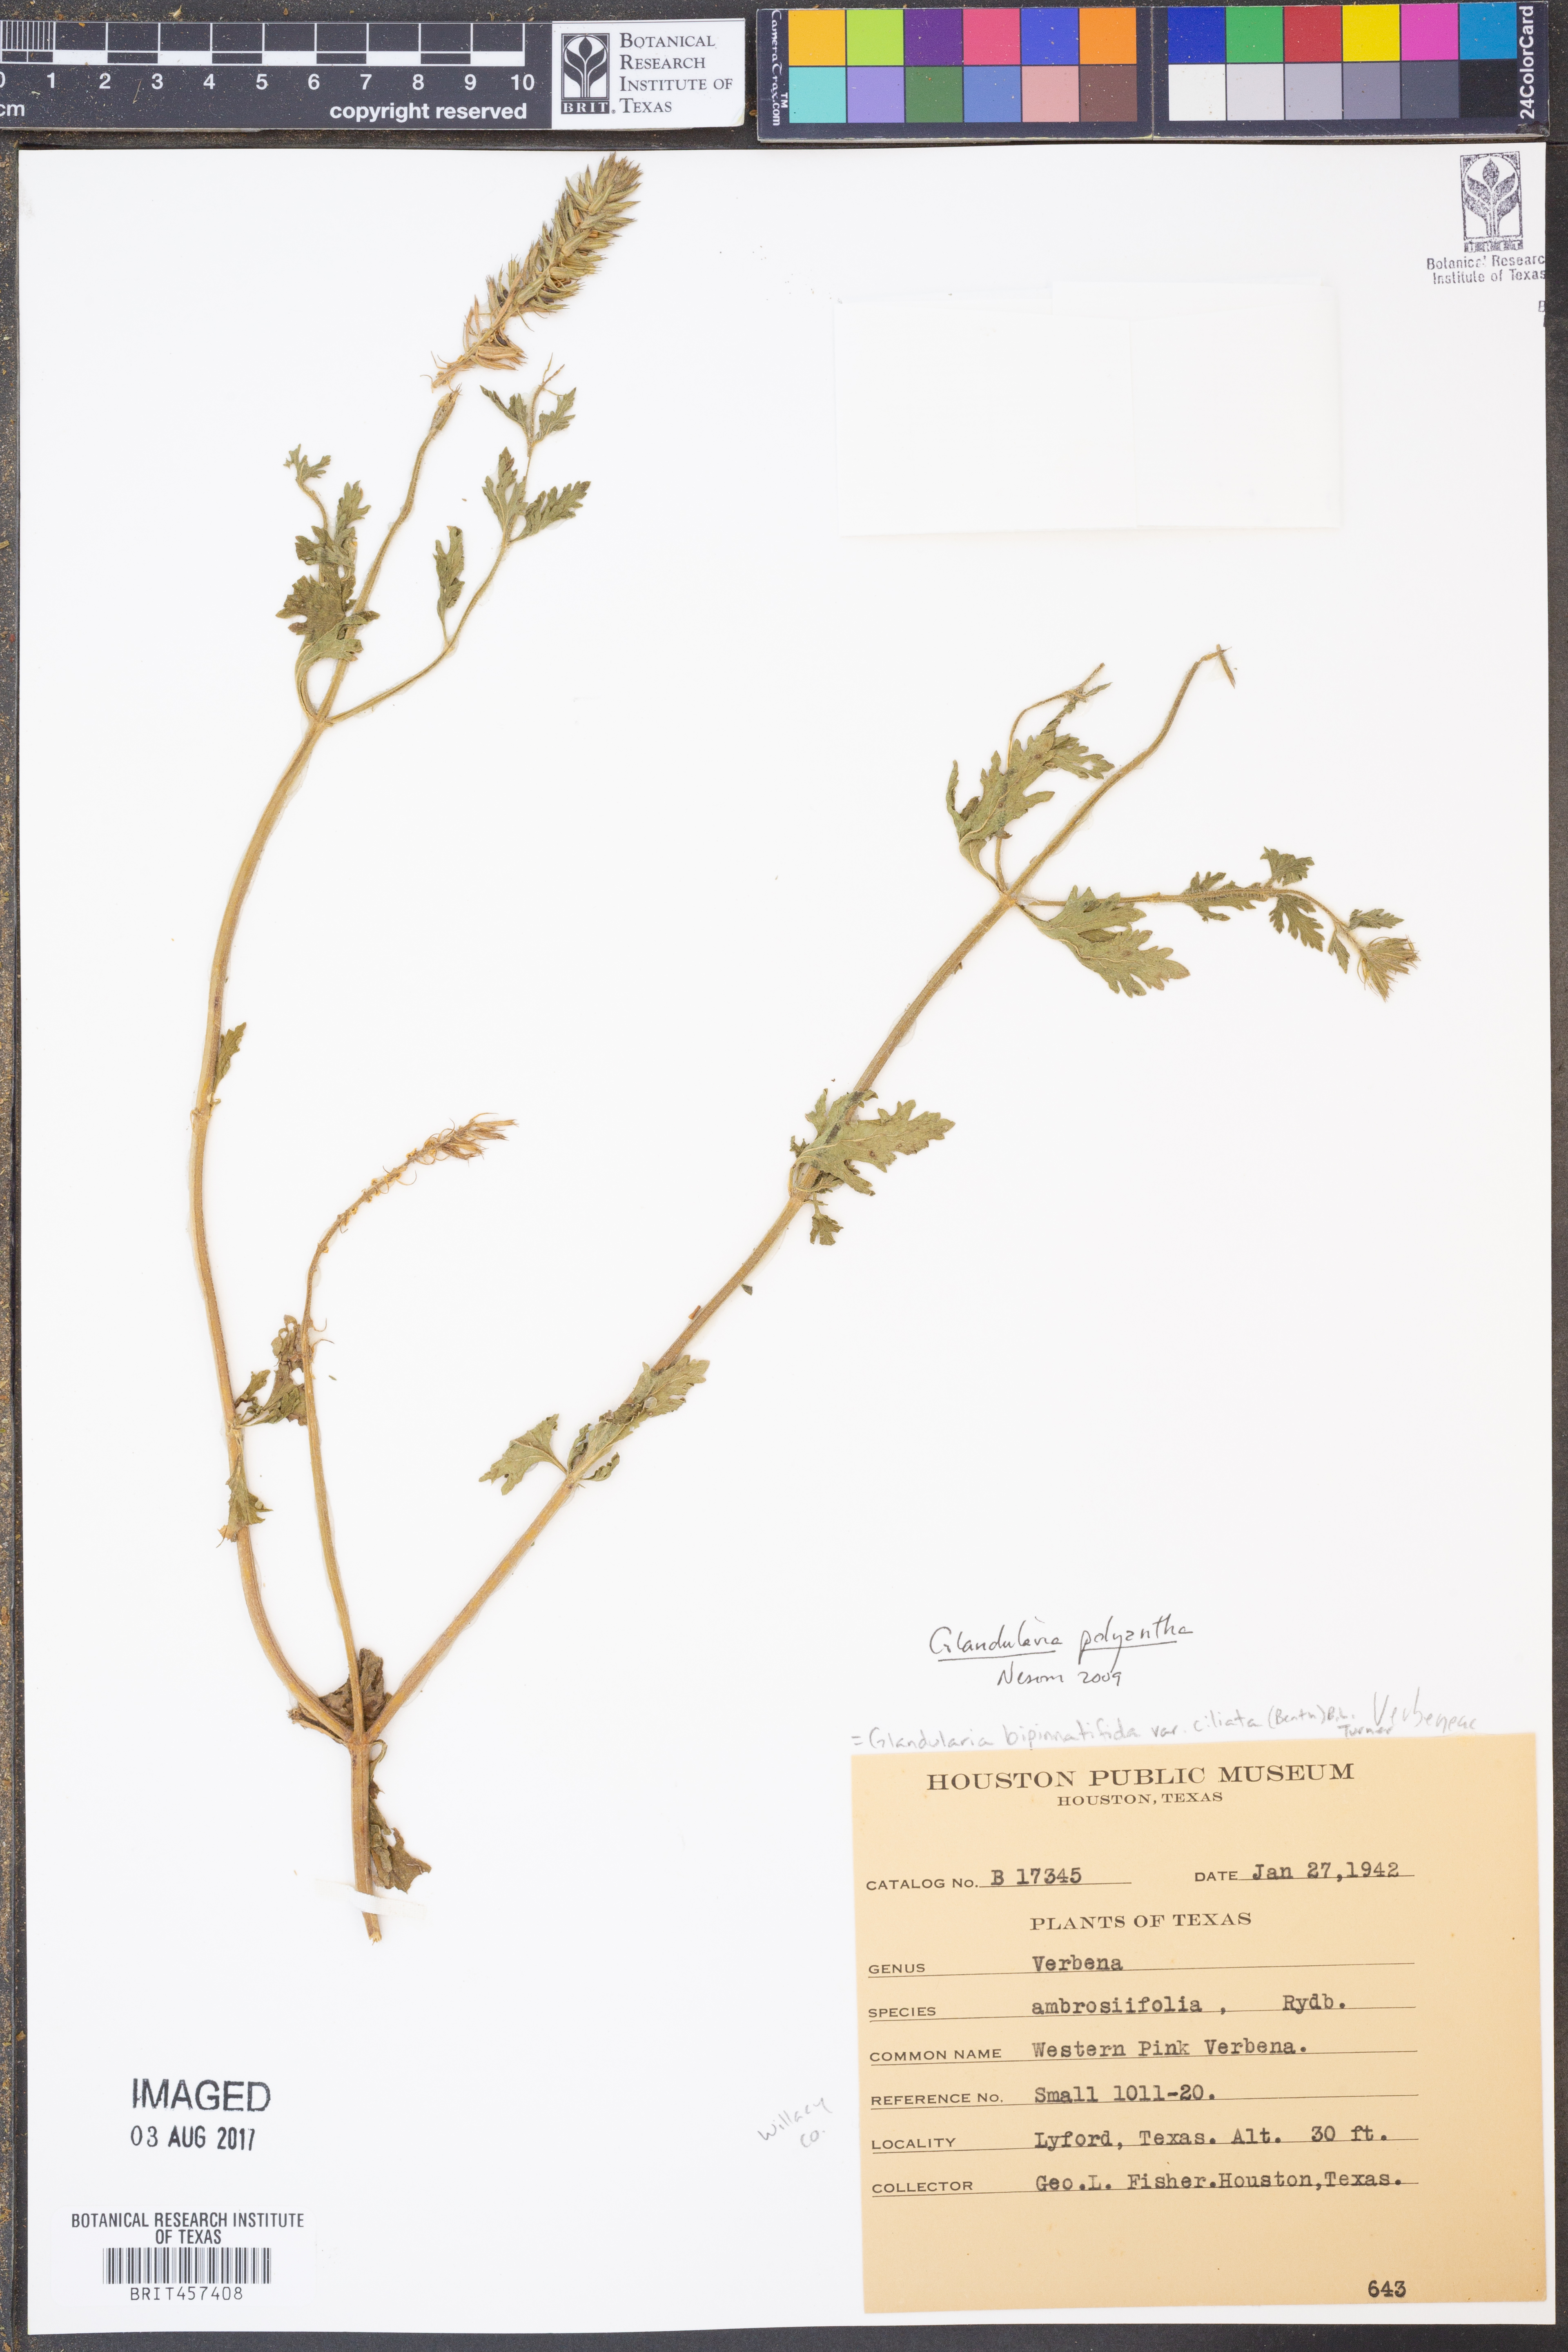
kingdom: Plantae
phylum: Tracheophyta
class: Magnoliopsida
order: Lamiales
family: Verbenaceae
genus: Verbena
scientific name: Verbena polyantha
